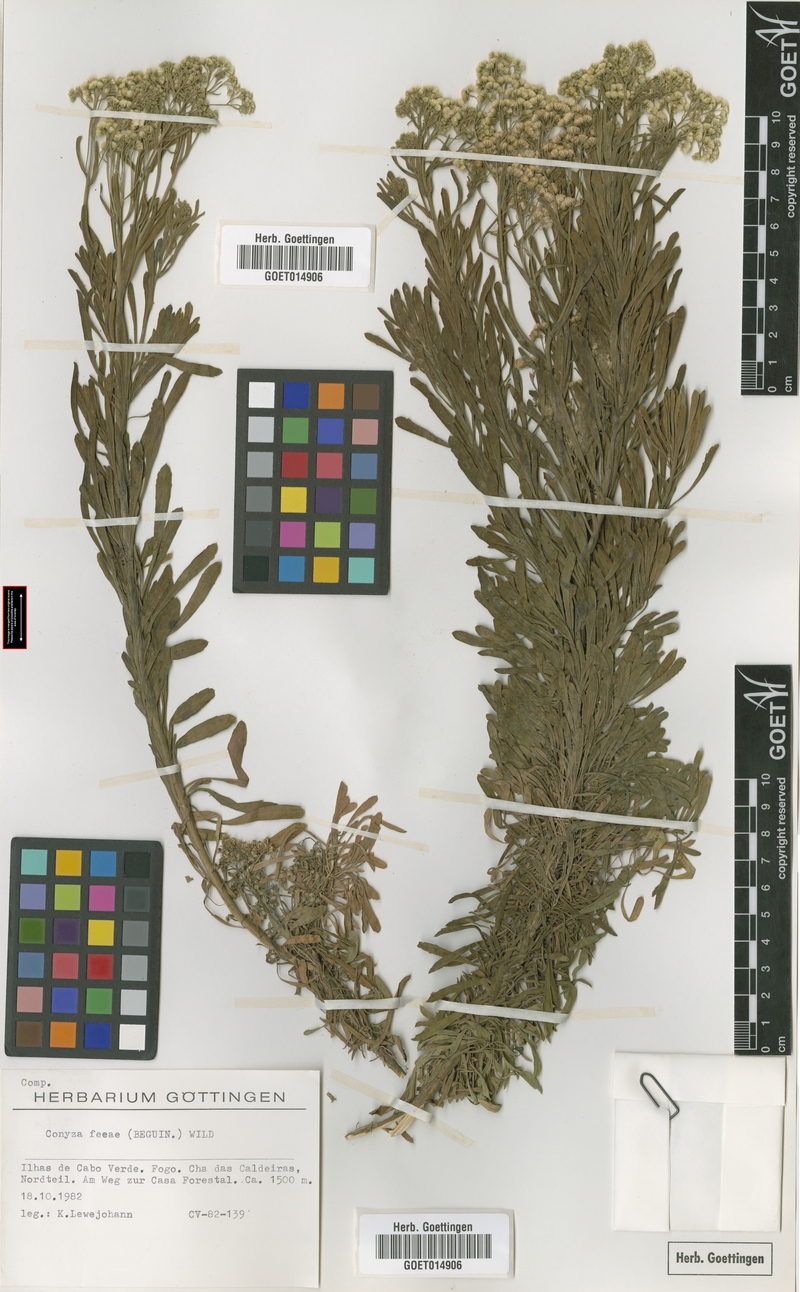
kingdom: Plantae
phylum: Tracheophyta
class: Magnoliopsida
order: Asterales
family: Asteraceae
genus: Nidorella
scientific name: Nidorella nobrei
